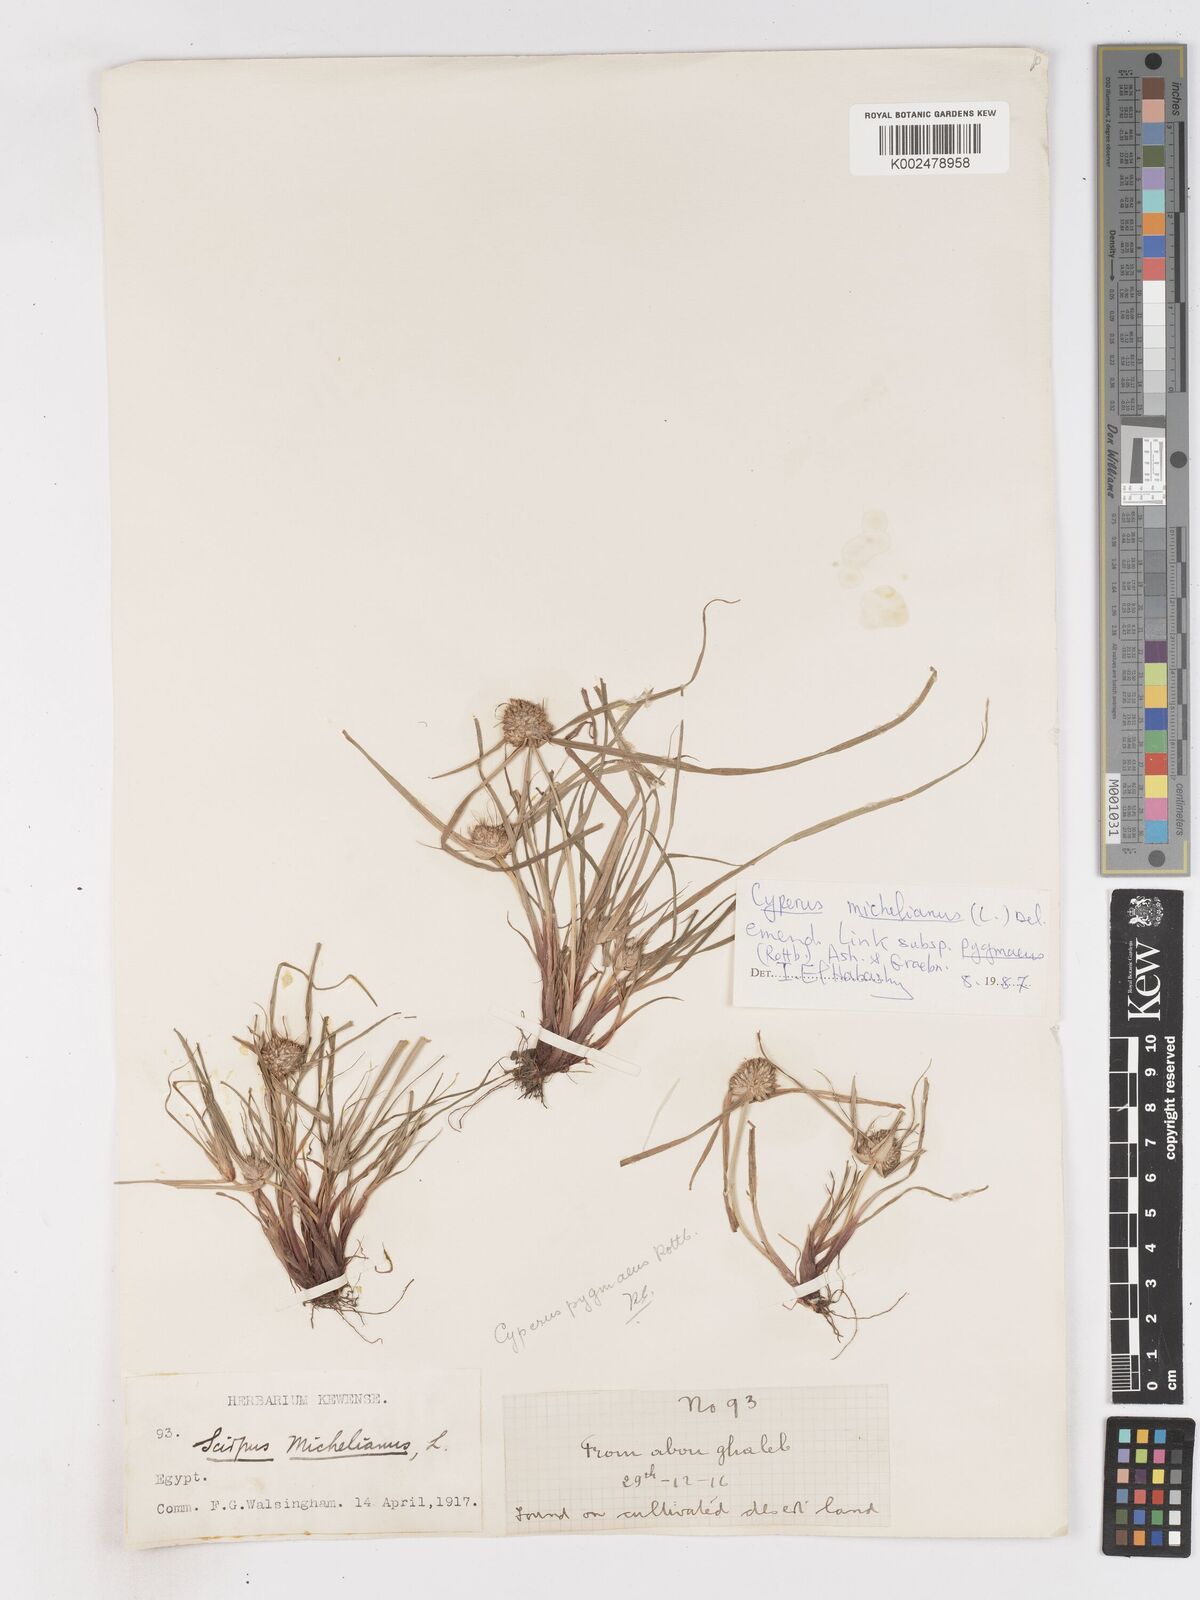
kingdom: Plantae
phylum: Tracheophyta
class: Liliopsida
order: Poales
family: Cyperaceae
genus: Cyperus
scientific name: Cyperus michelianus
